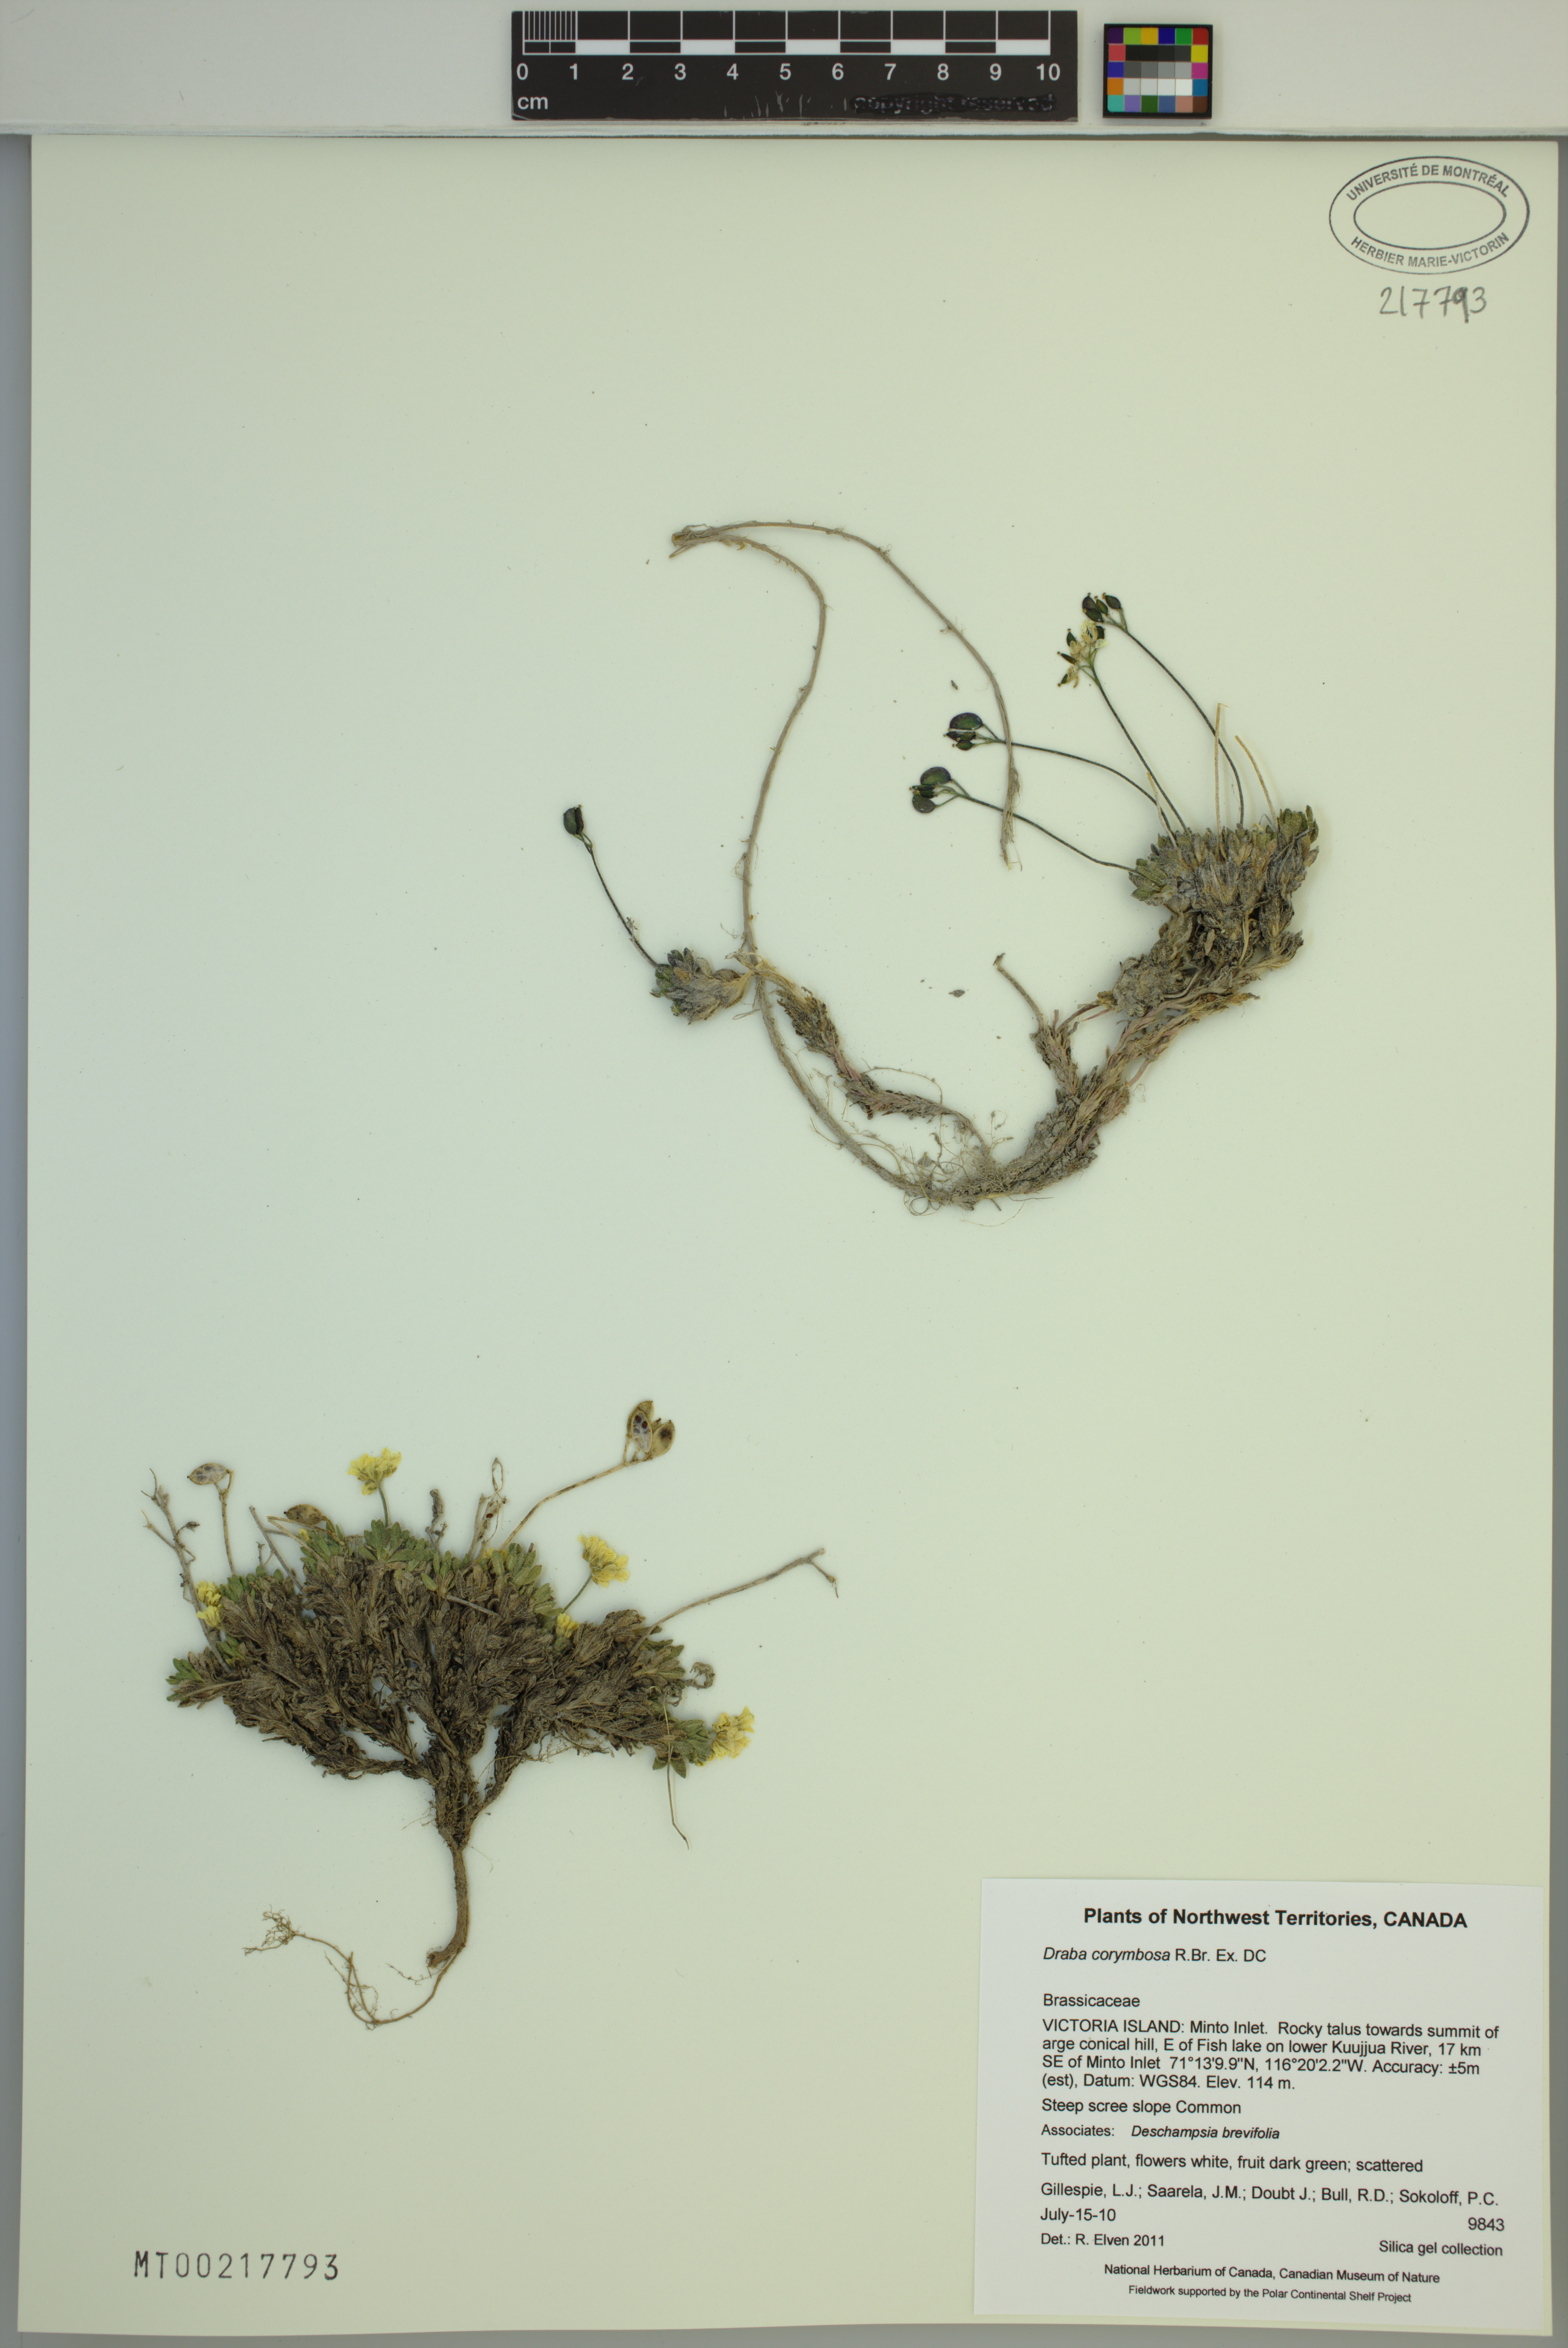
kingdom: Plantae
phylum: Tracheophyta
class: Magnoliopsida
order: Brassicales
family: Brassicaceae
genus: Draba
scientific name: Draba corymbosa
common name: Cushion whitlow-grass
